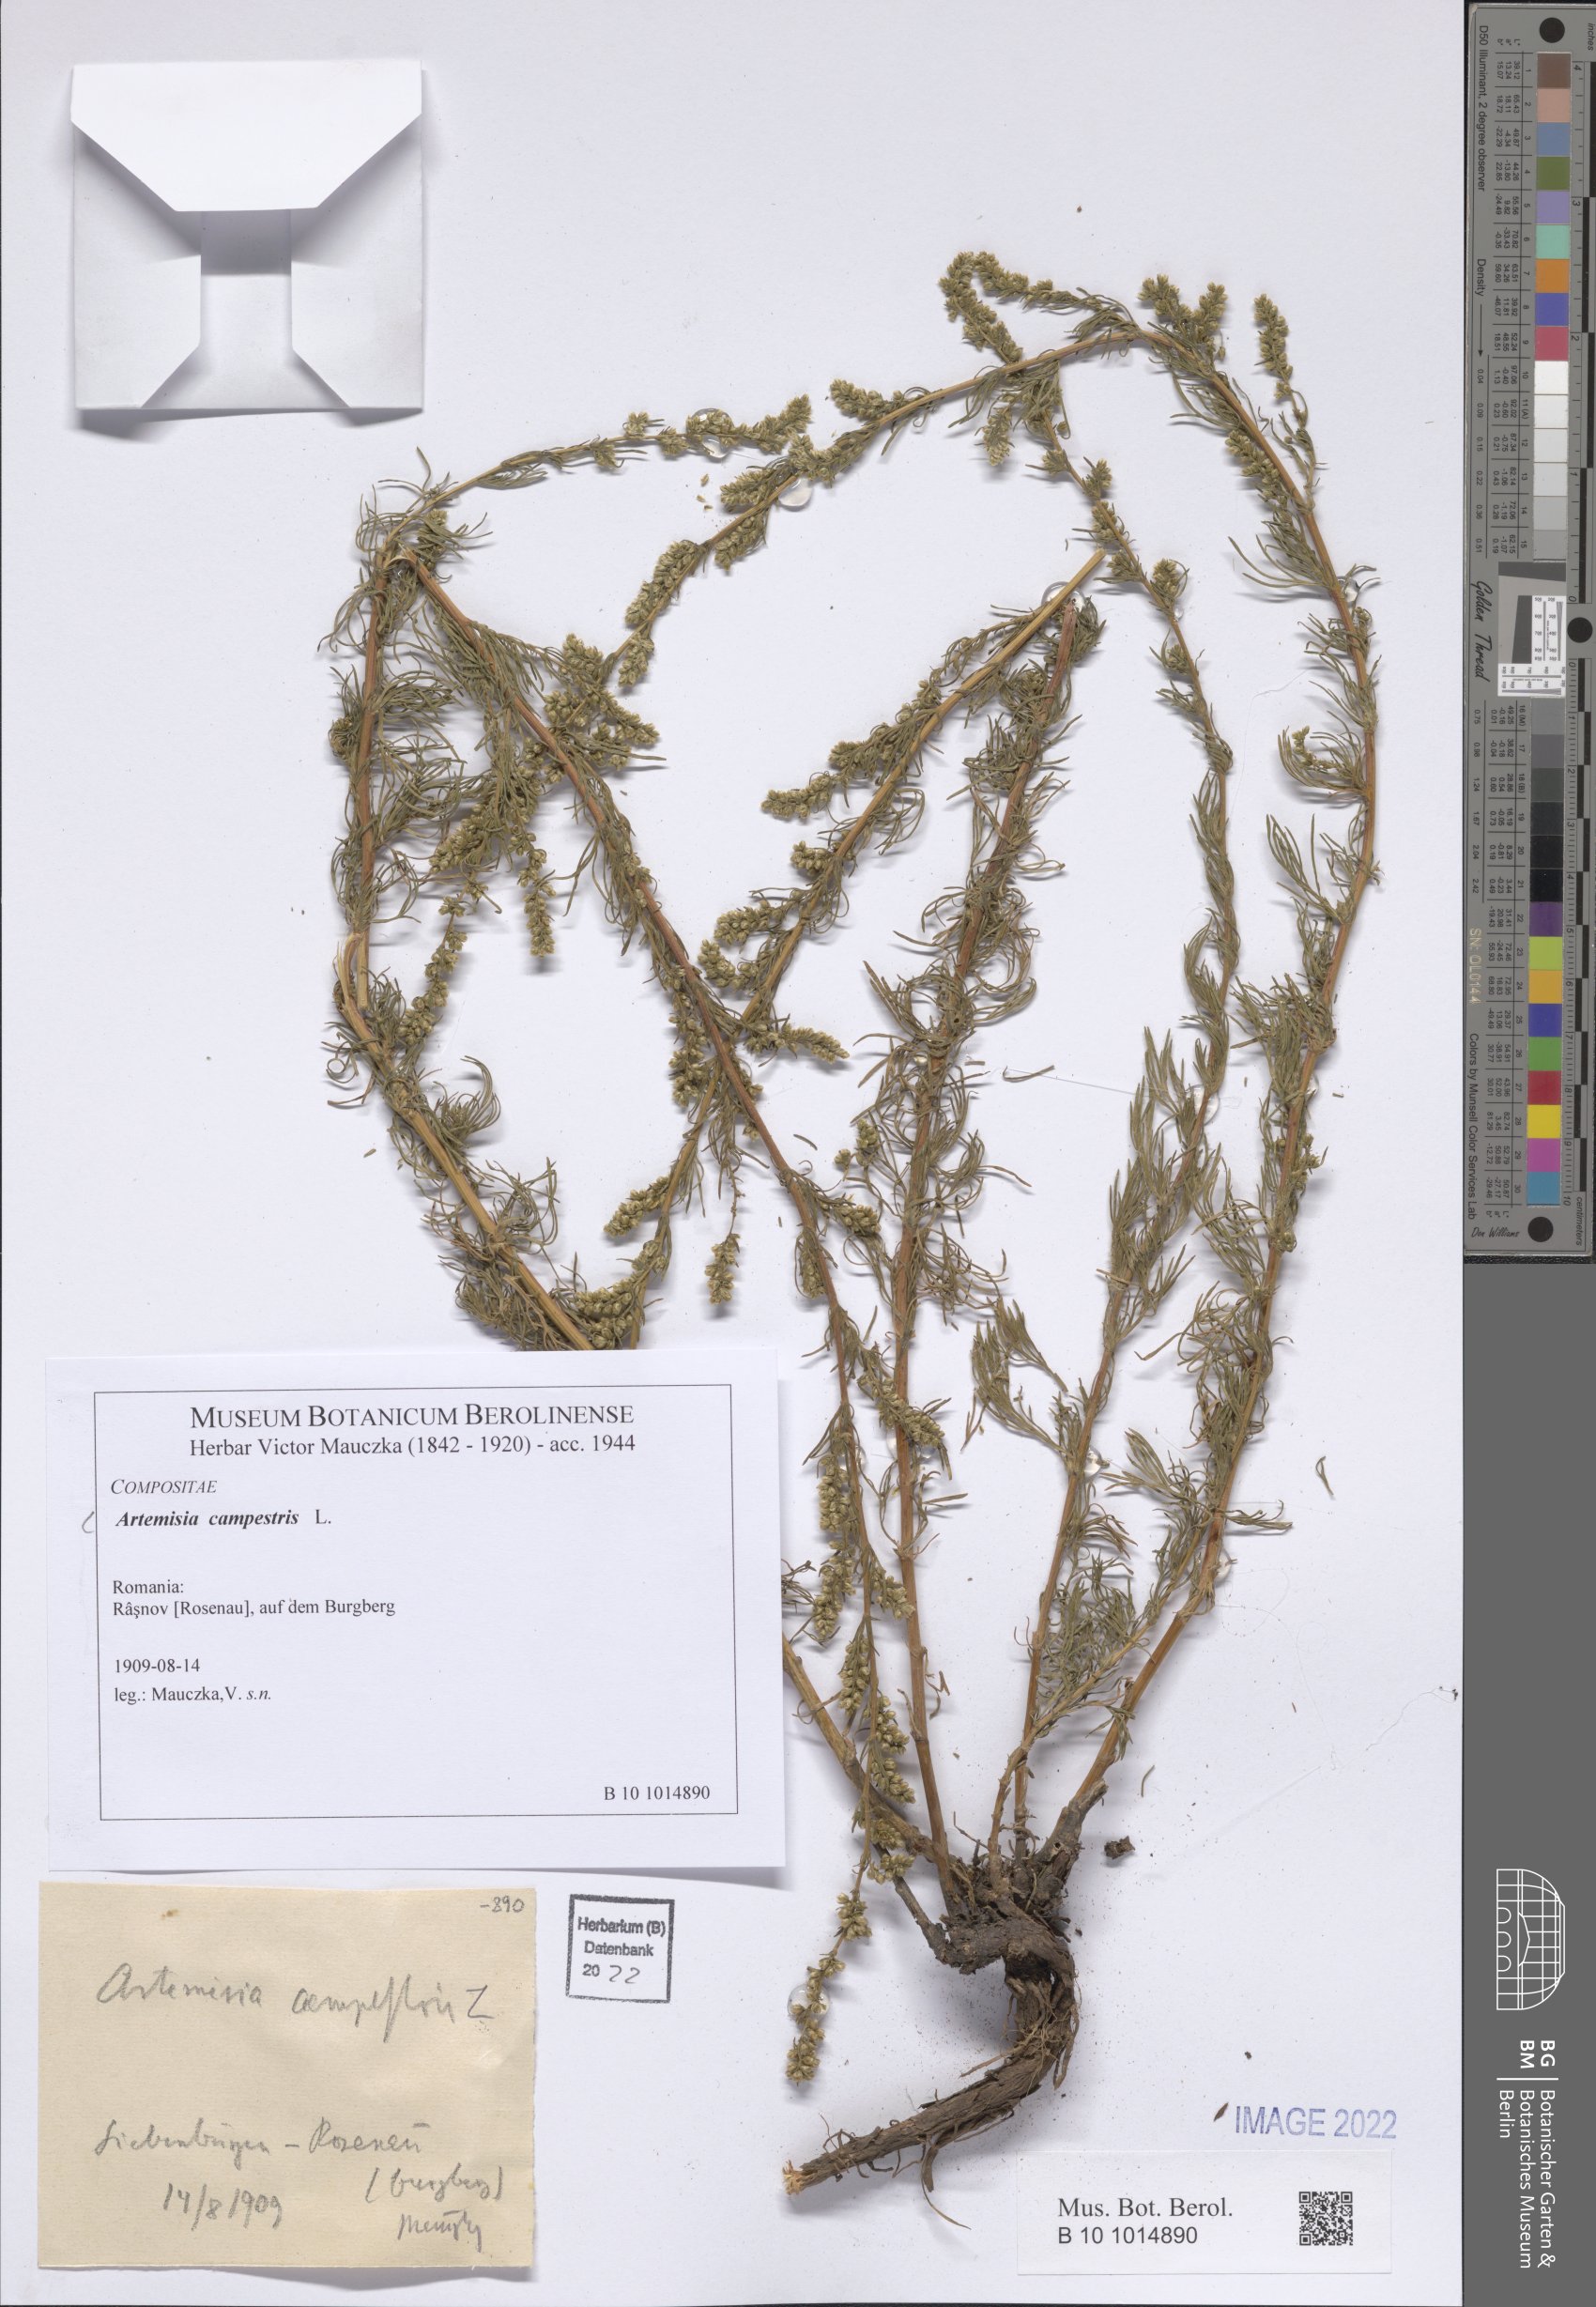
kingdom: Plantae
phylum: Tracheophyta
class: Magnoliopsida
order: Asterales
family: Asteraceae
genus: Artemisia
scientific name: Artemisia campestris
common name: Field wormwood
